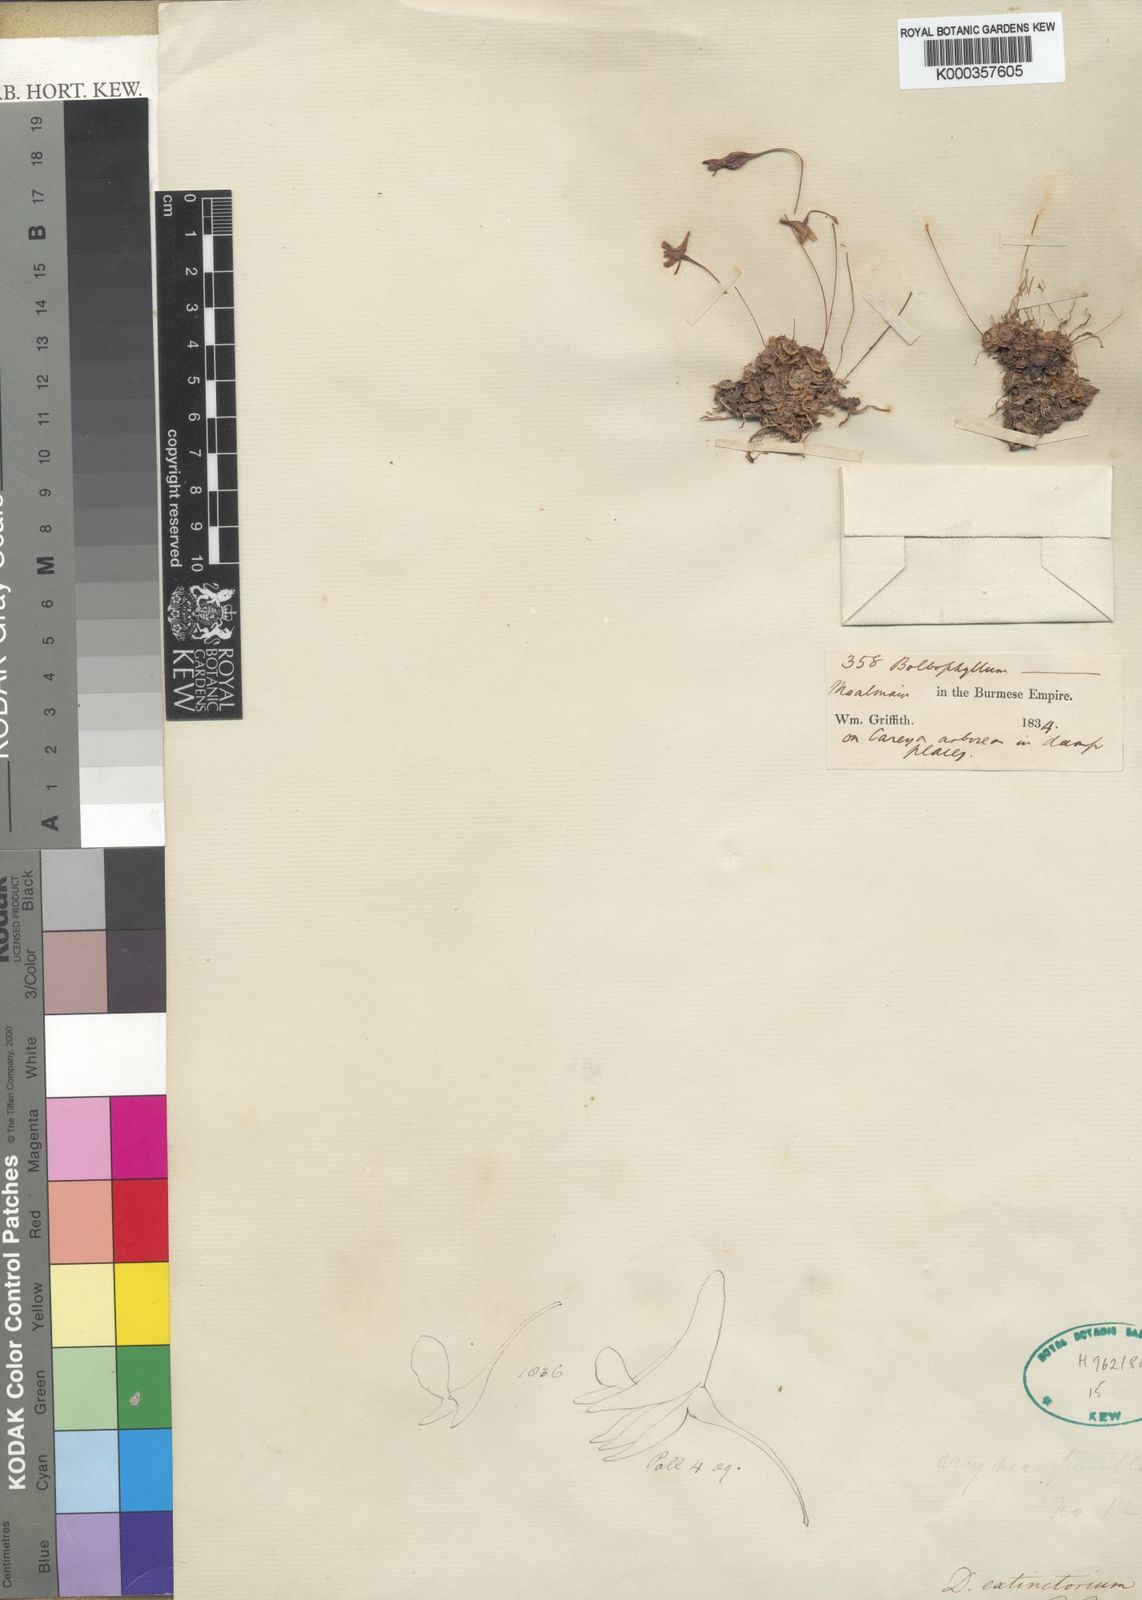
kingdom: Plantae
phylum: Tracheophyta
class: Liliopsida
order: Asparagales
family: Orchidaceae
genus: Porpax
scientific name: Porpax extinctoria
